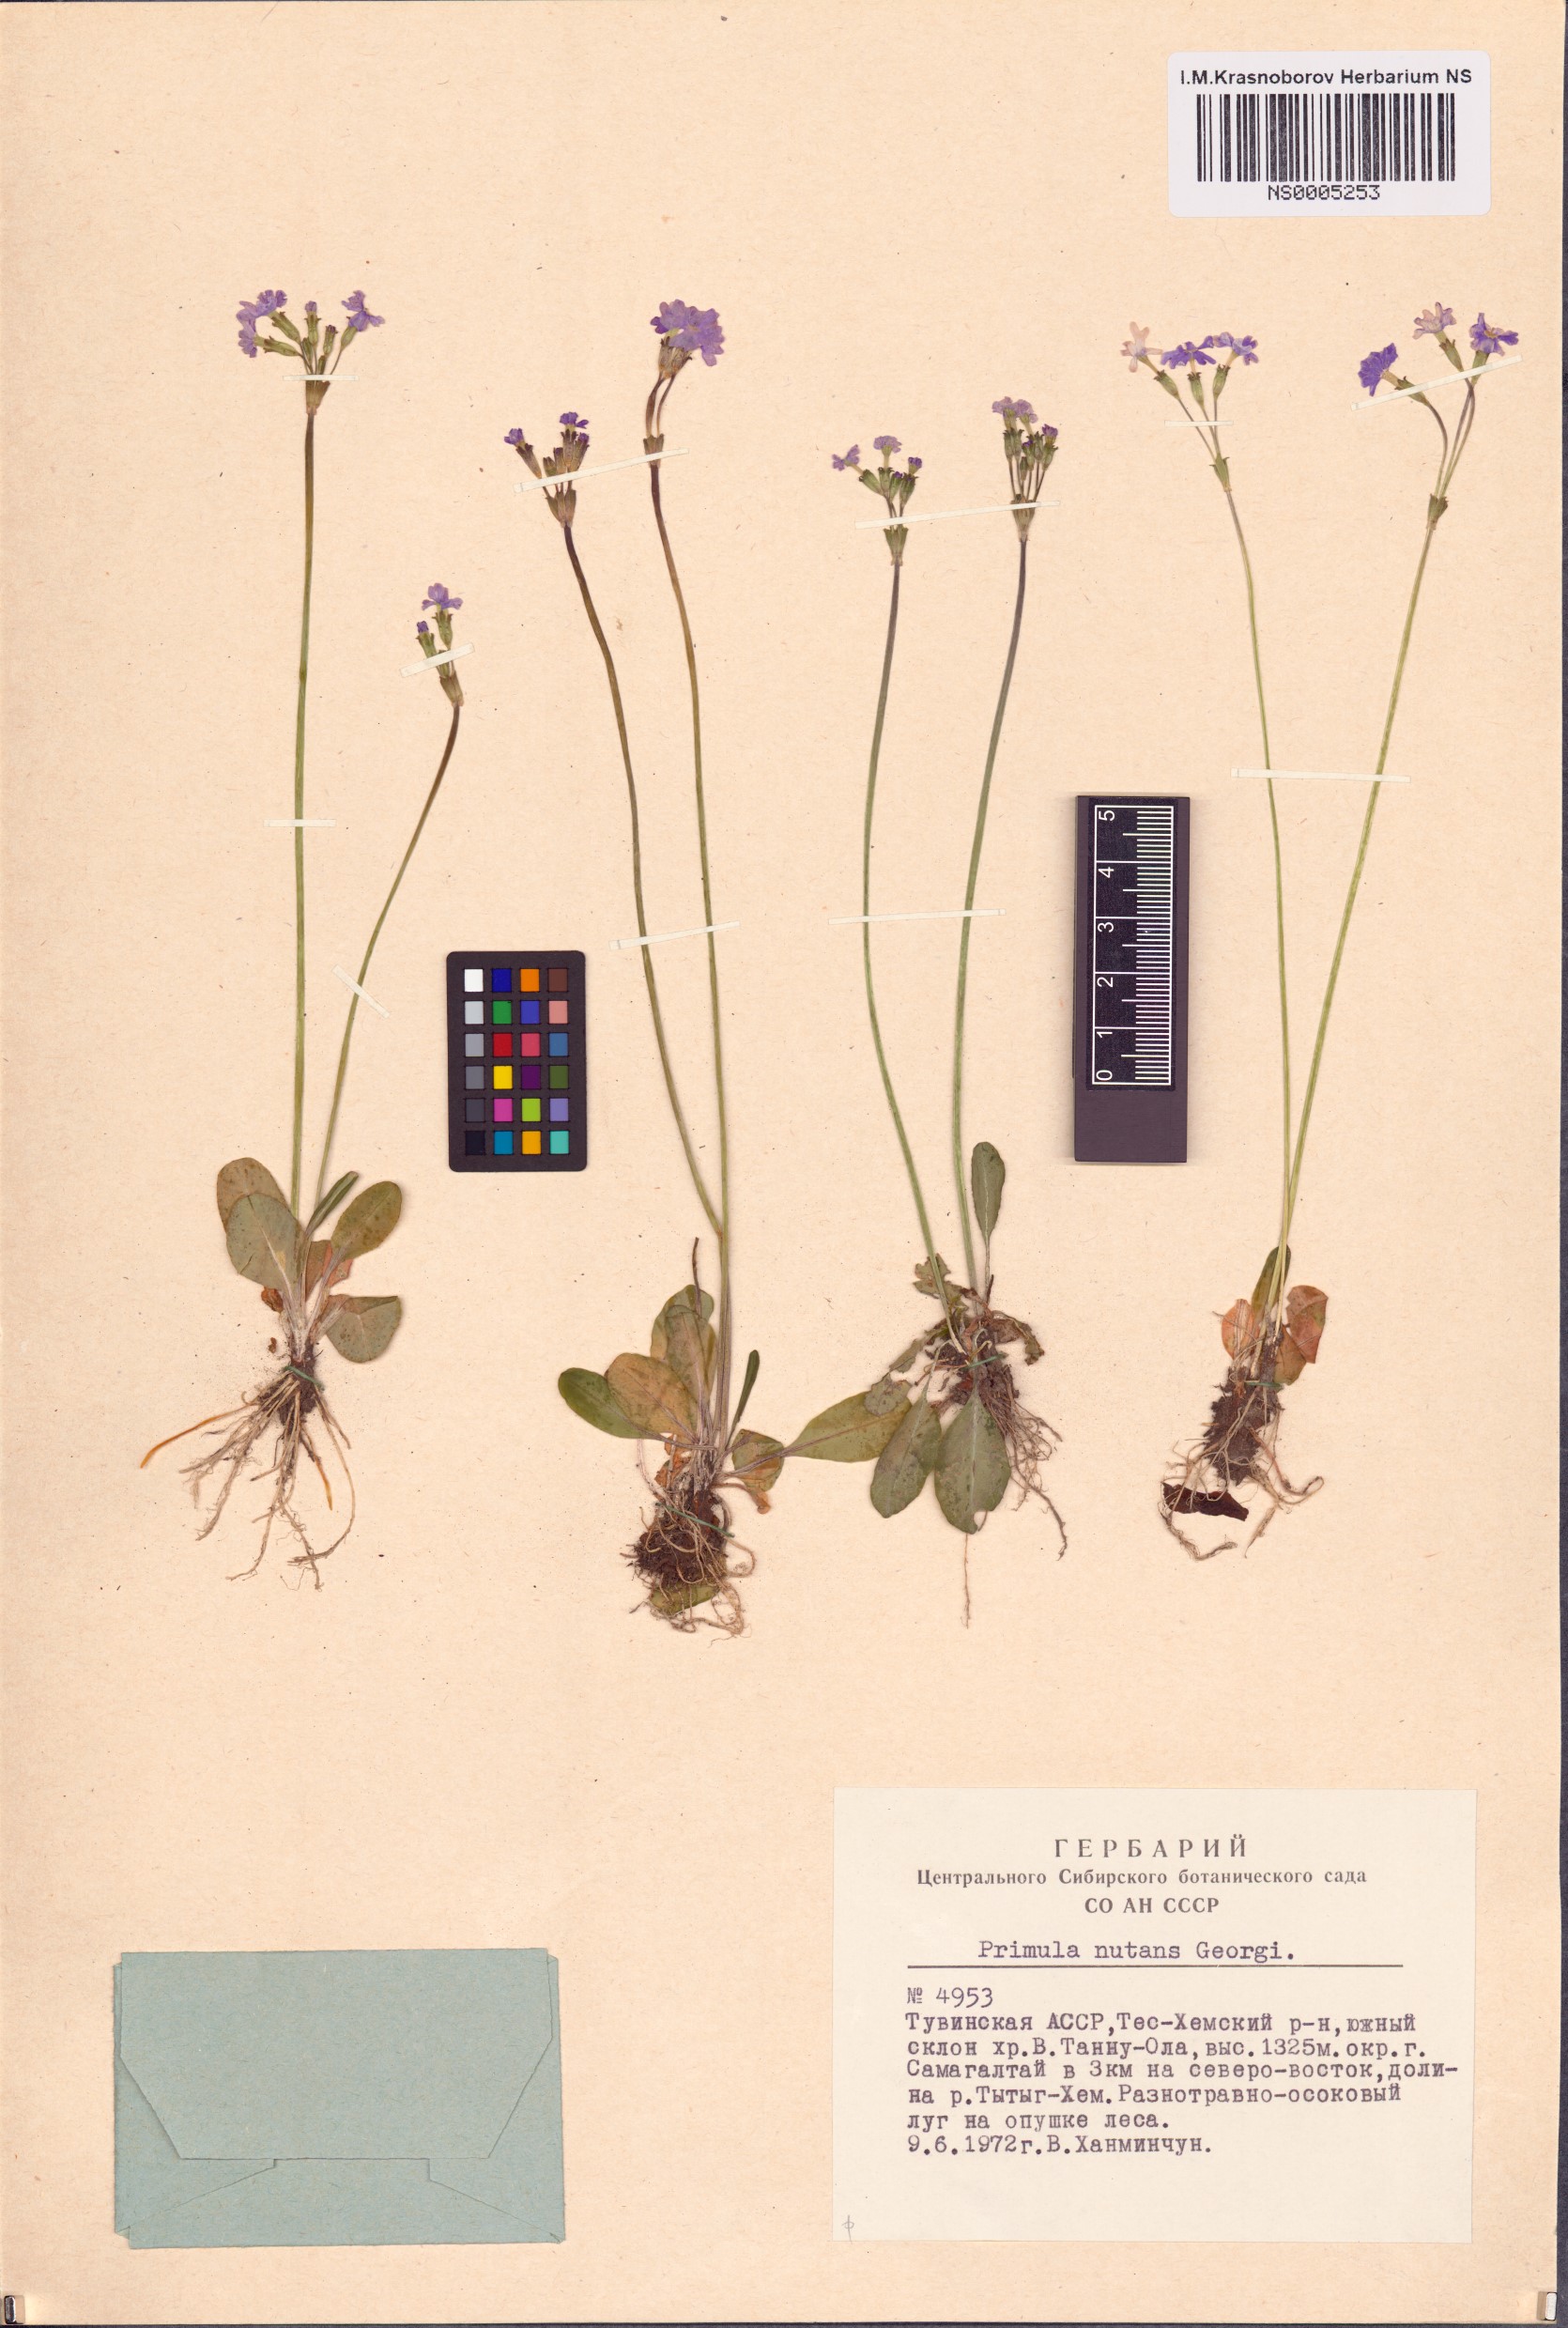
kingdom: Plantae
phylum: Tracheophyta
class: Magnoliopsida
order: Ericales
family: Primulaceae
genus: Primula
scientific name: Primula nutans
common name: Siberian primrose
